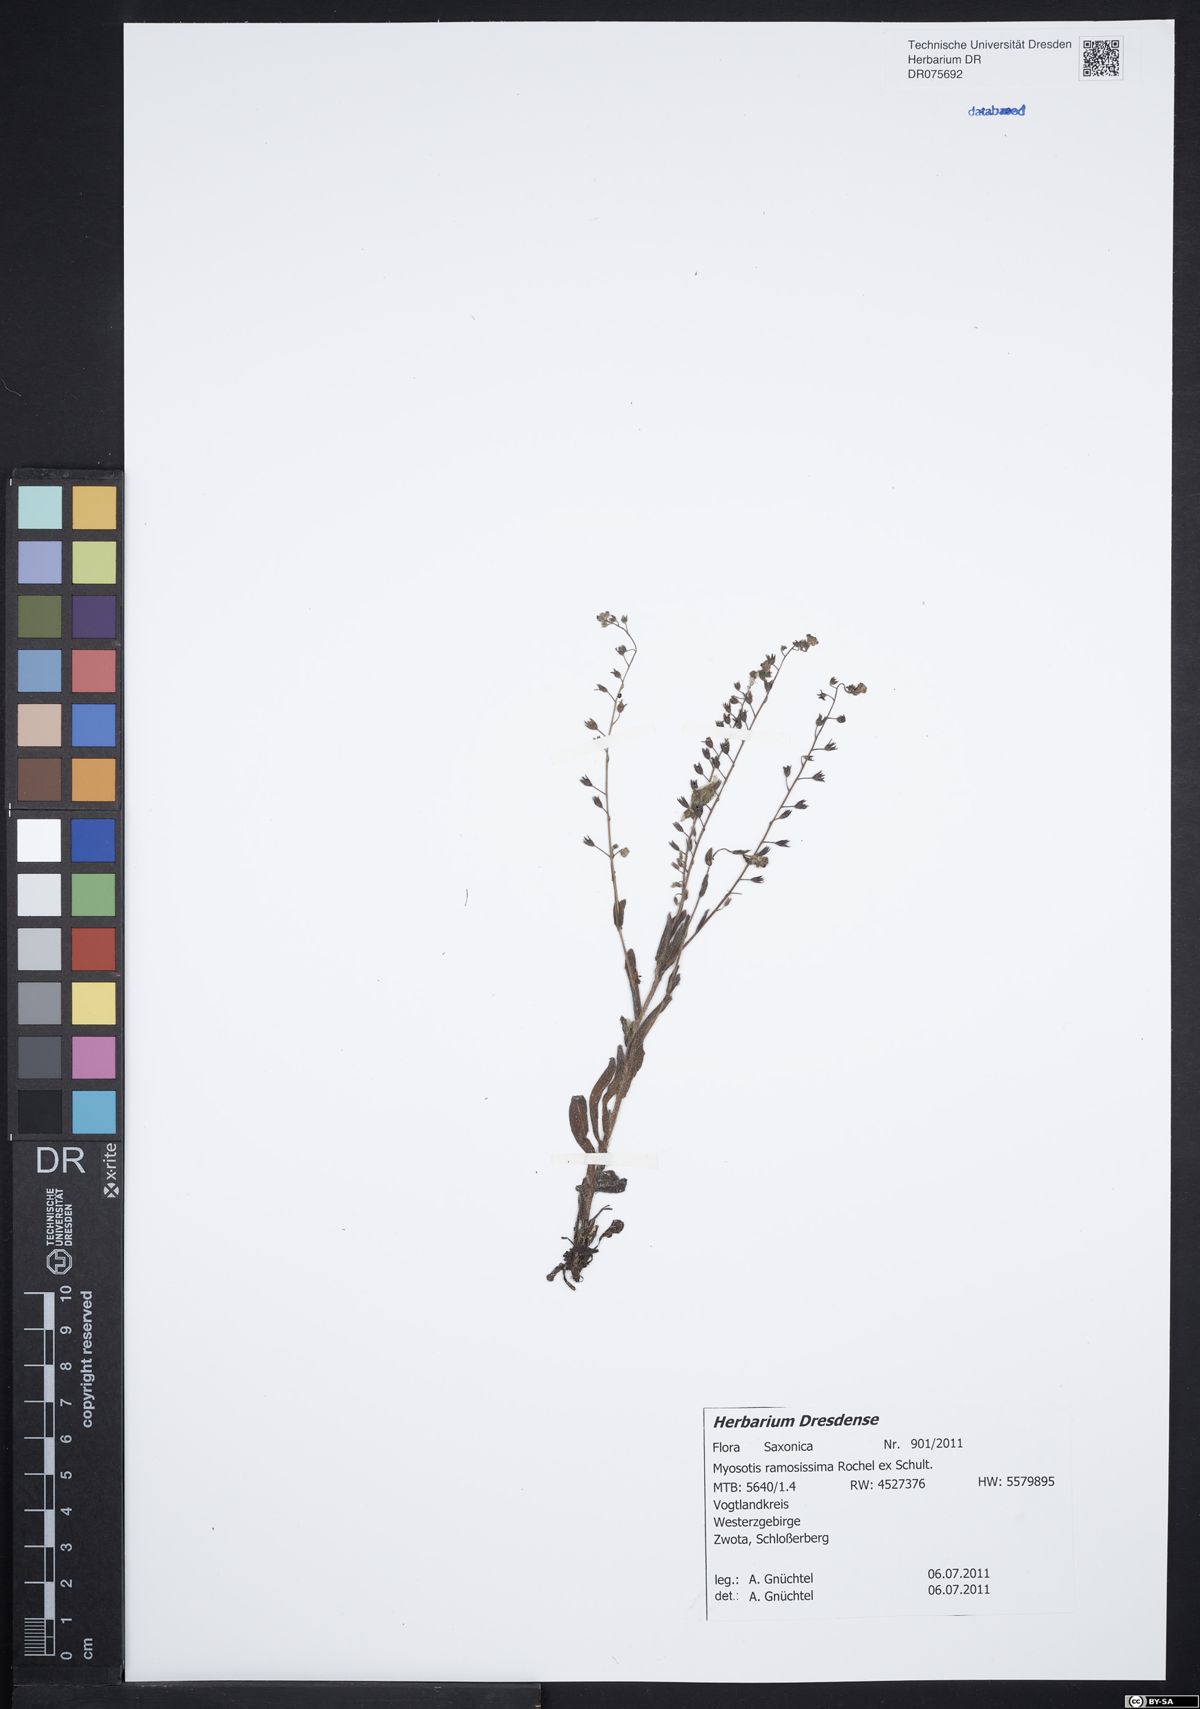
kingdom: Plantae
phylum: Tracheophyta
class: Magnoliopsida
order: Boraginales
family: Boraginaceae
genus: Myosotis
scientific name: Myosotis ramosissima
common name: Early forget-me-not
